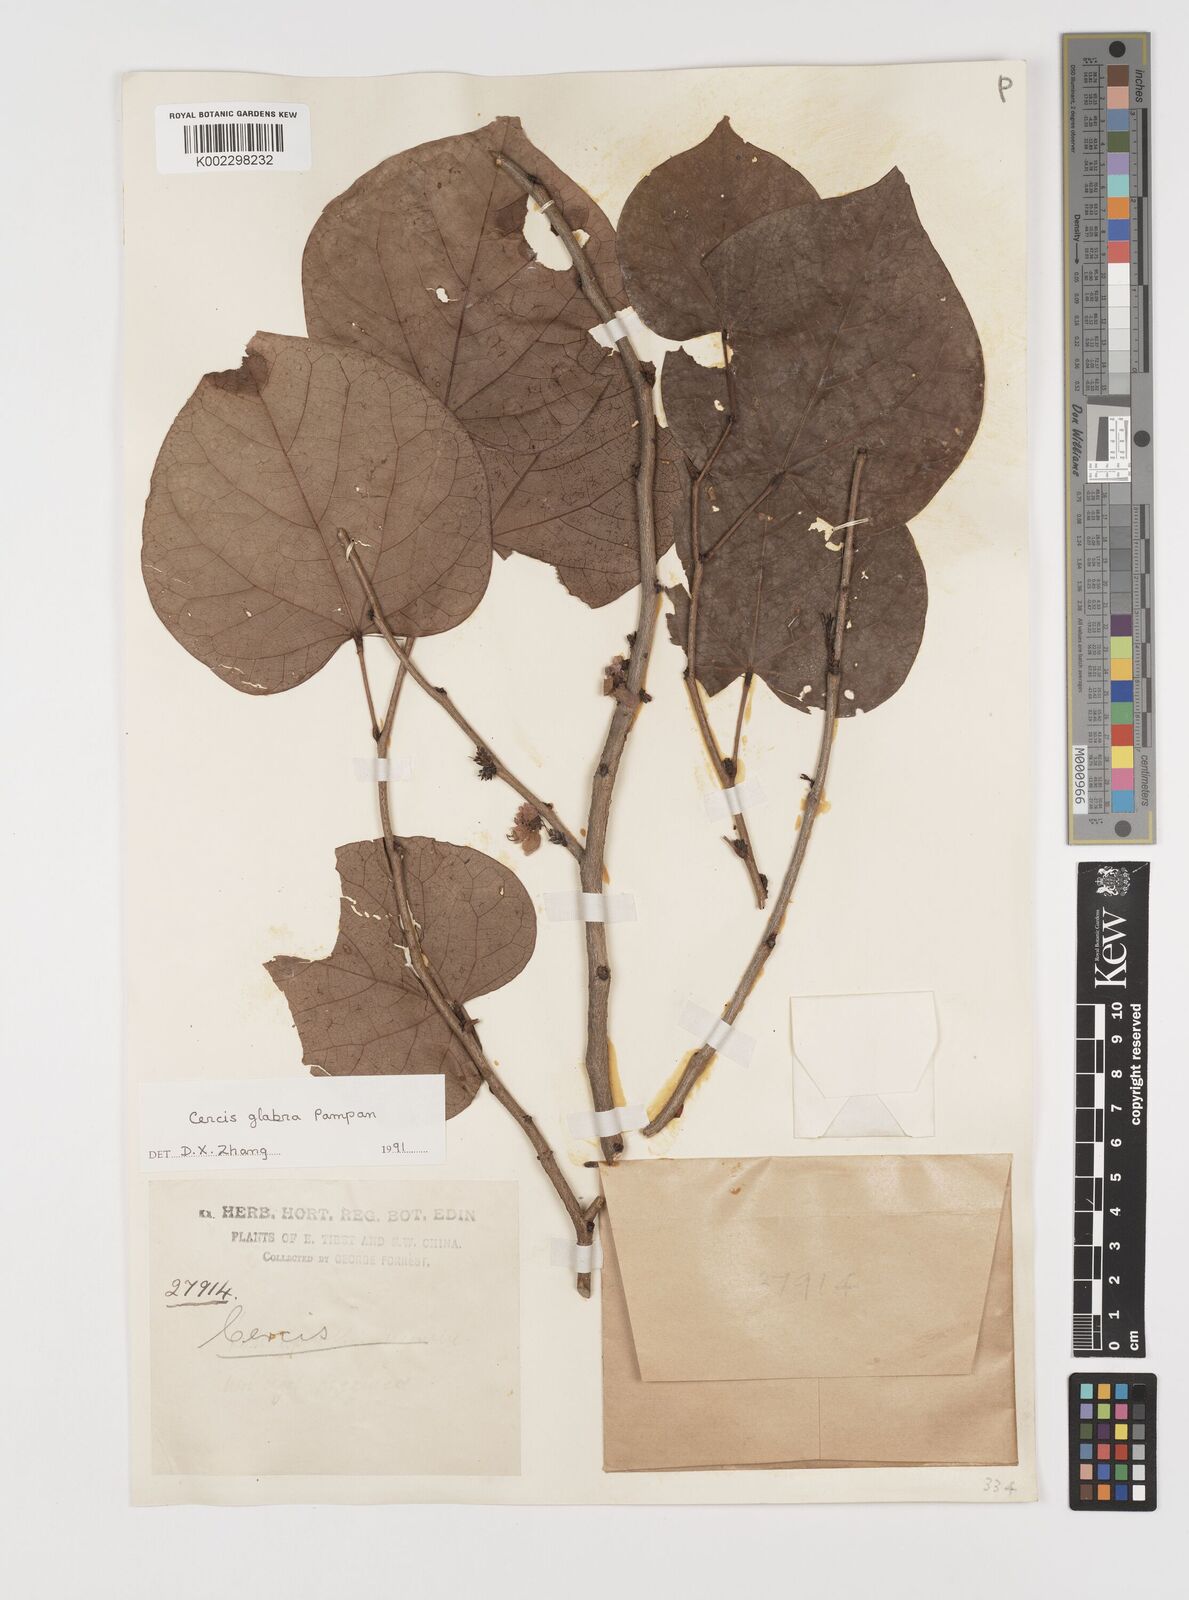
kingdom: Plantae
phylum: Tracheophyta
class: Magnoliopsida
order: Fabales
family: Fabaceae
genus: Cercis
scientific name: Cercis glabra
